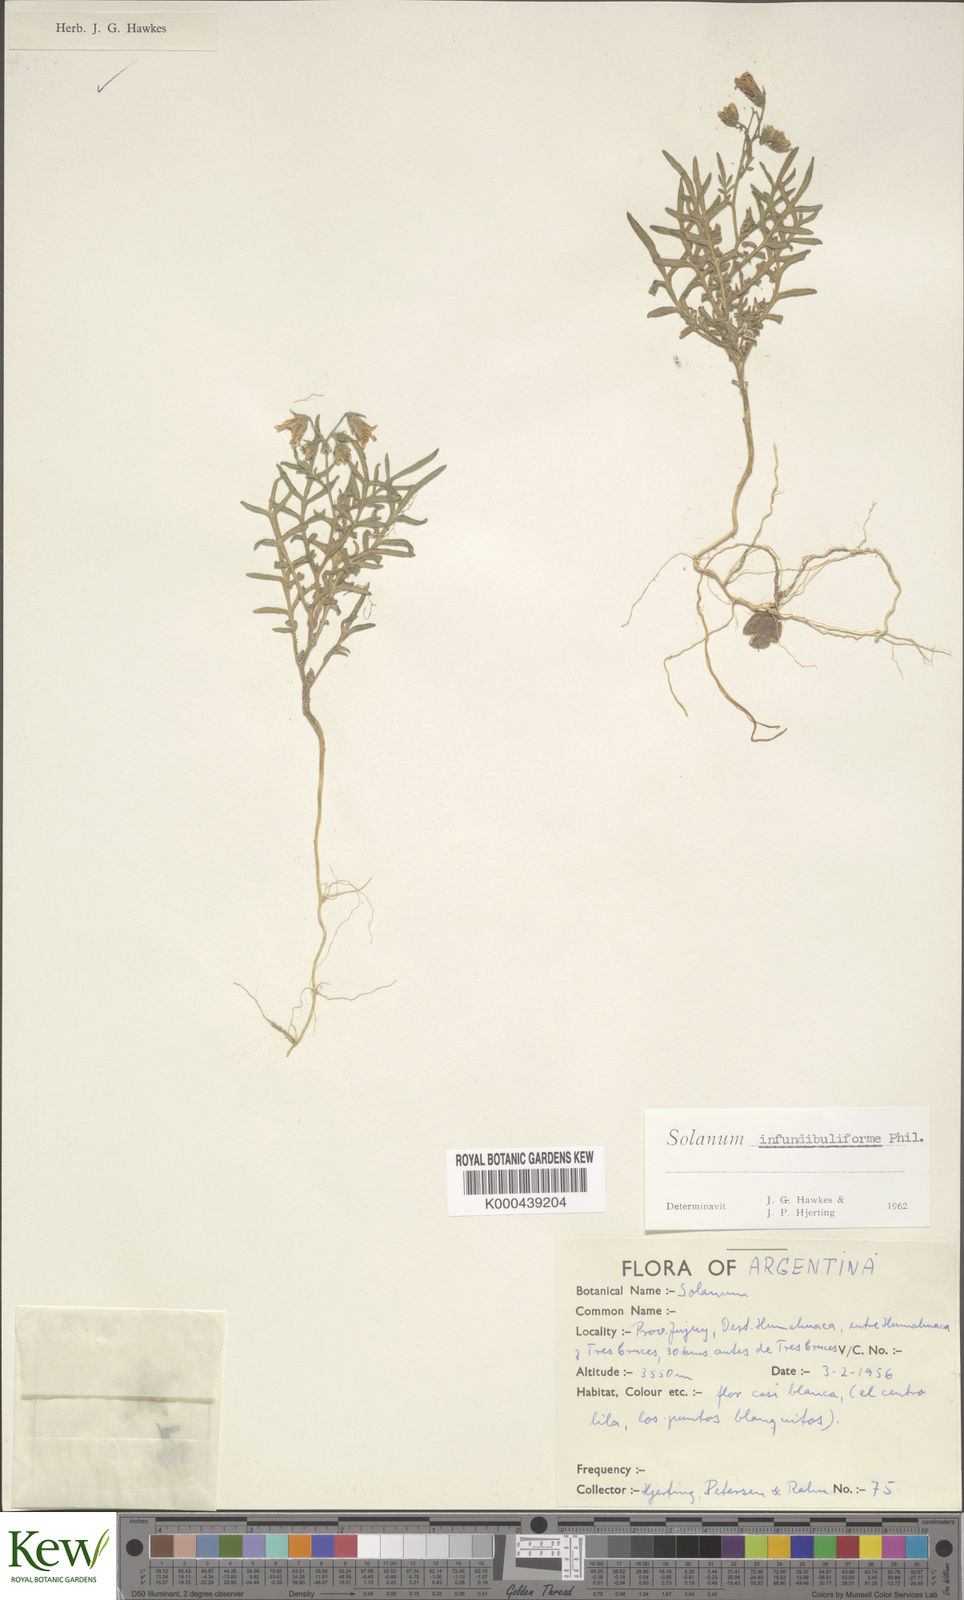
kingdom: Plantae
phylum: Tracheophyta
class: Magnoliopsida
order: Solanales
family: Solanaceae
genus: Solanum
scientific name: Solanum infundibuliforme
